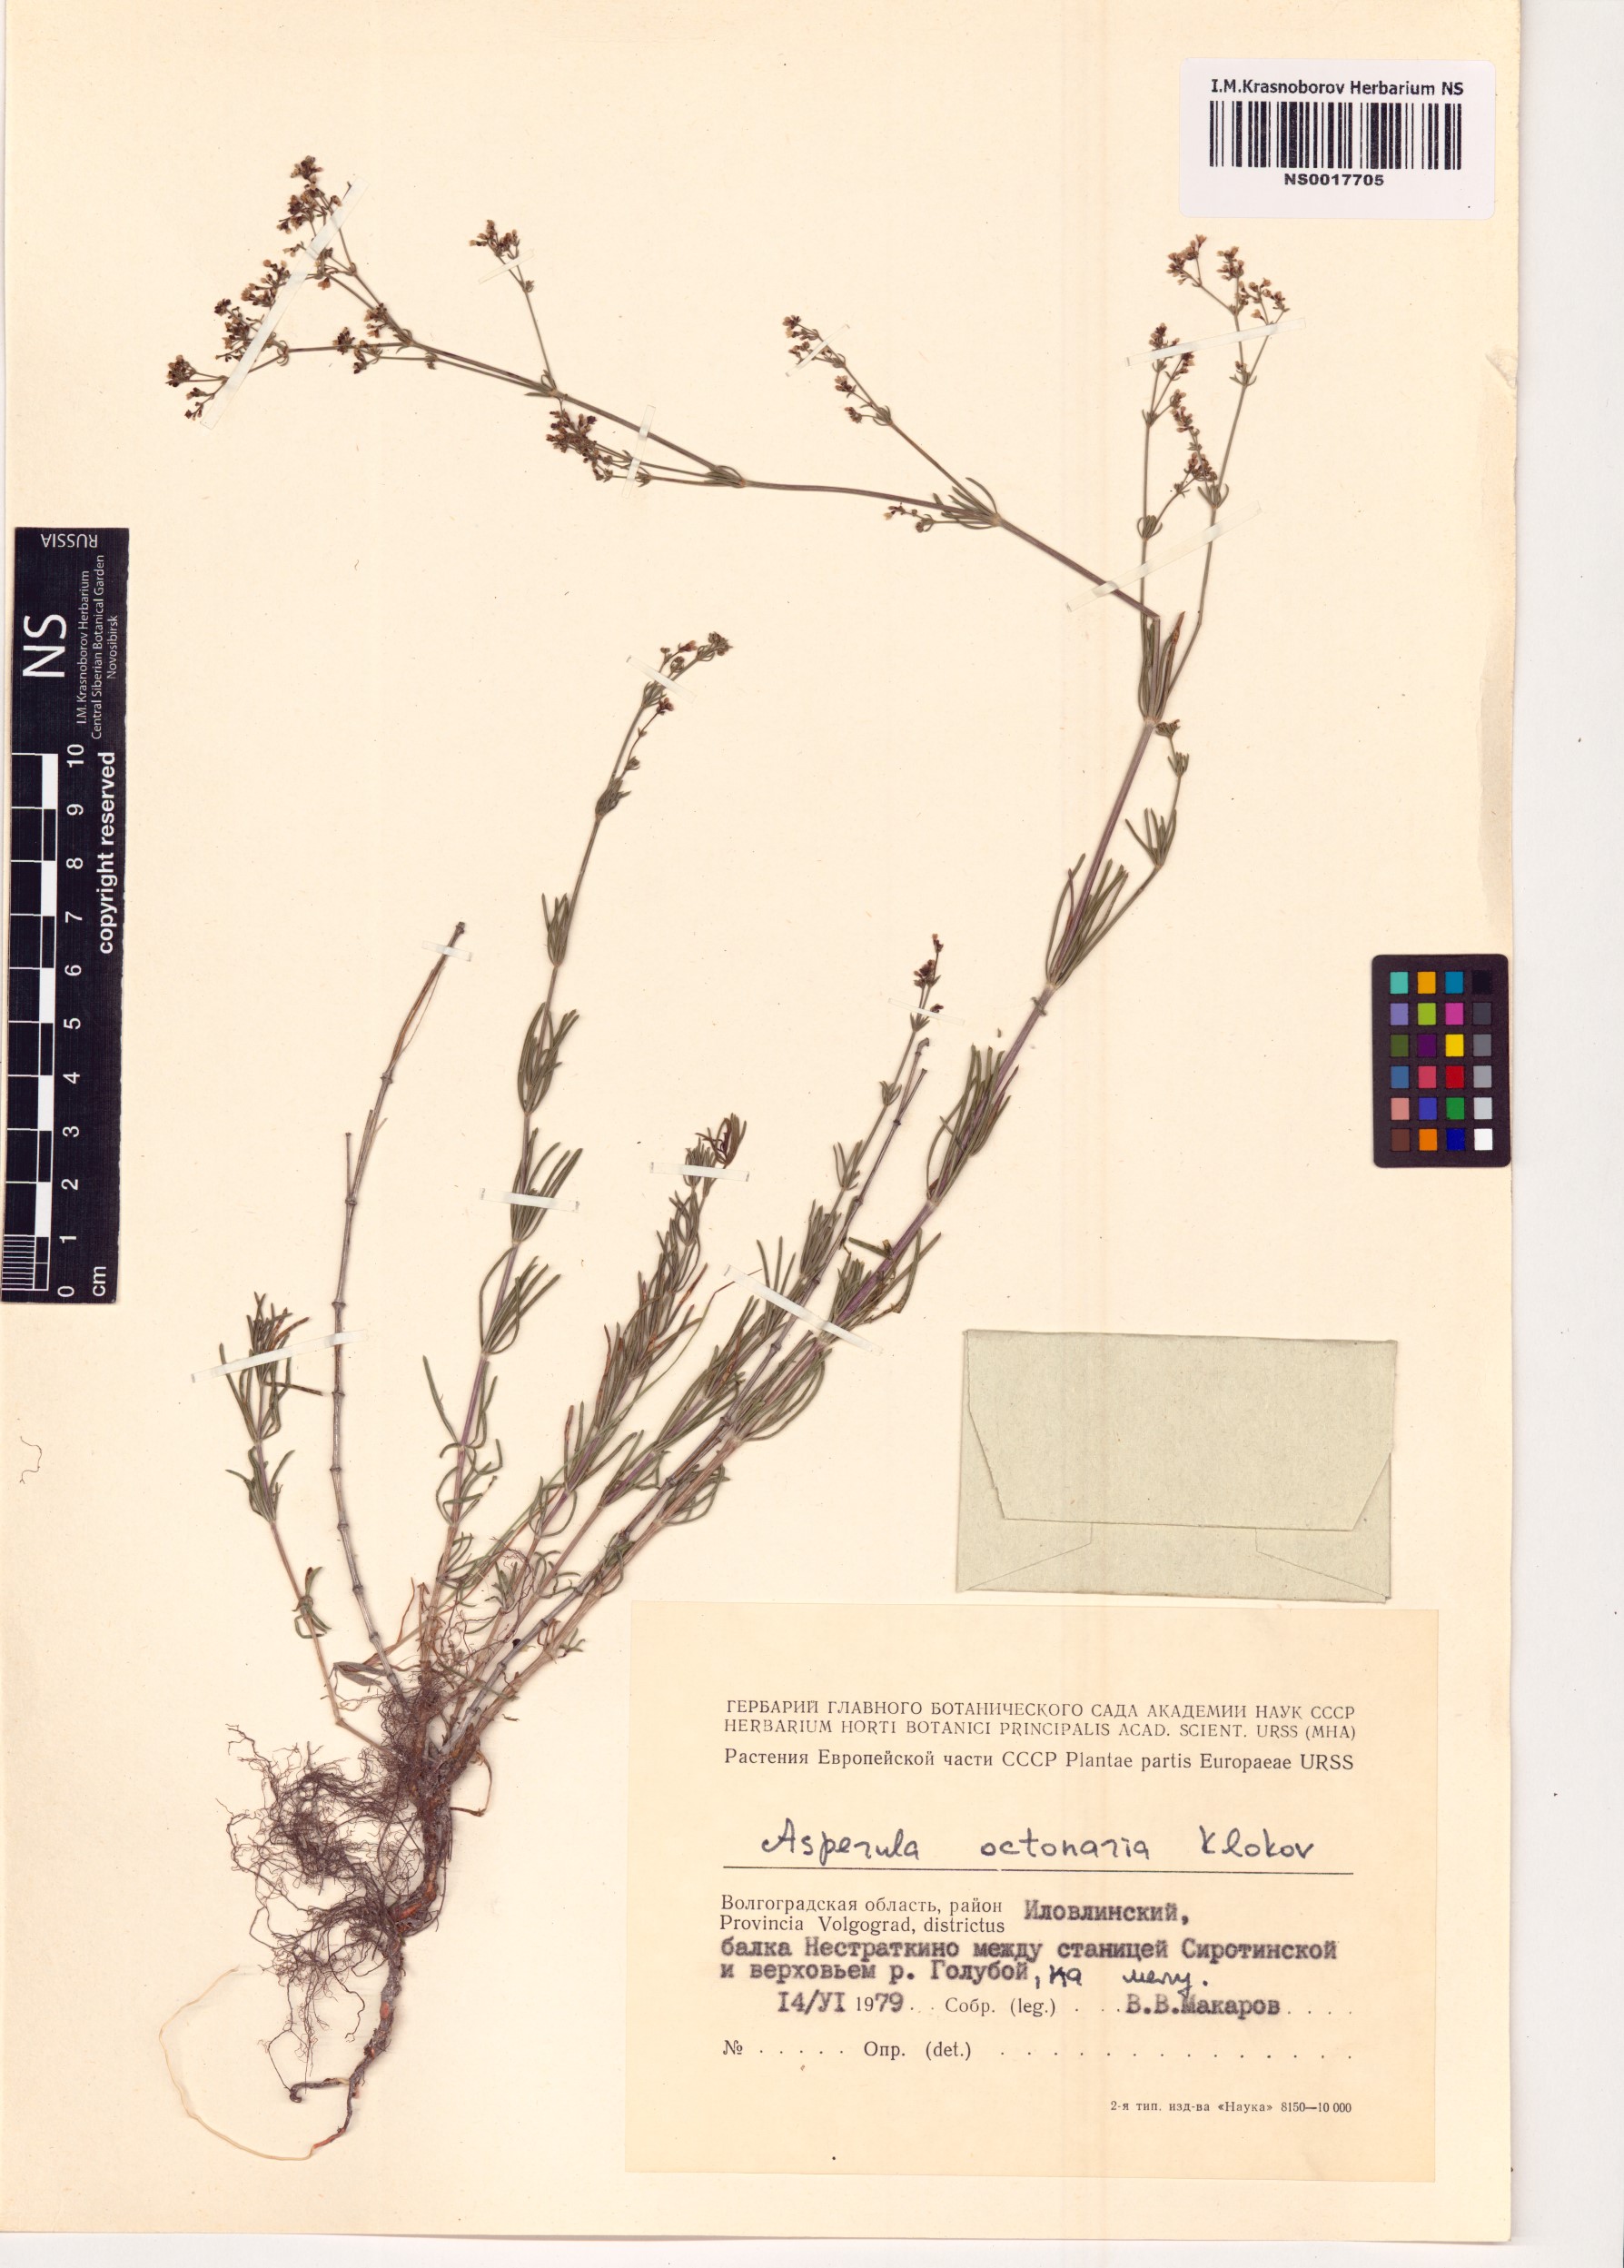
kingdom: Plantae
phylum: Tracheophyta
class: Magnoliopsida
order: Gentianales
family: Rubiaceae
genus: Galium
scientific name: Galium octonarium
